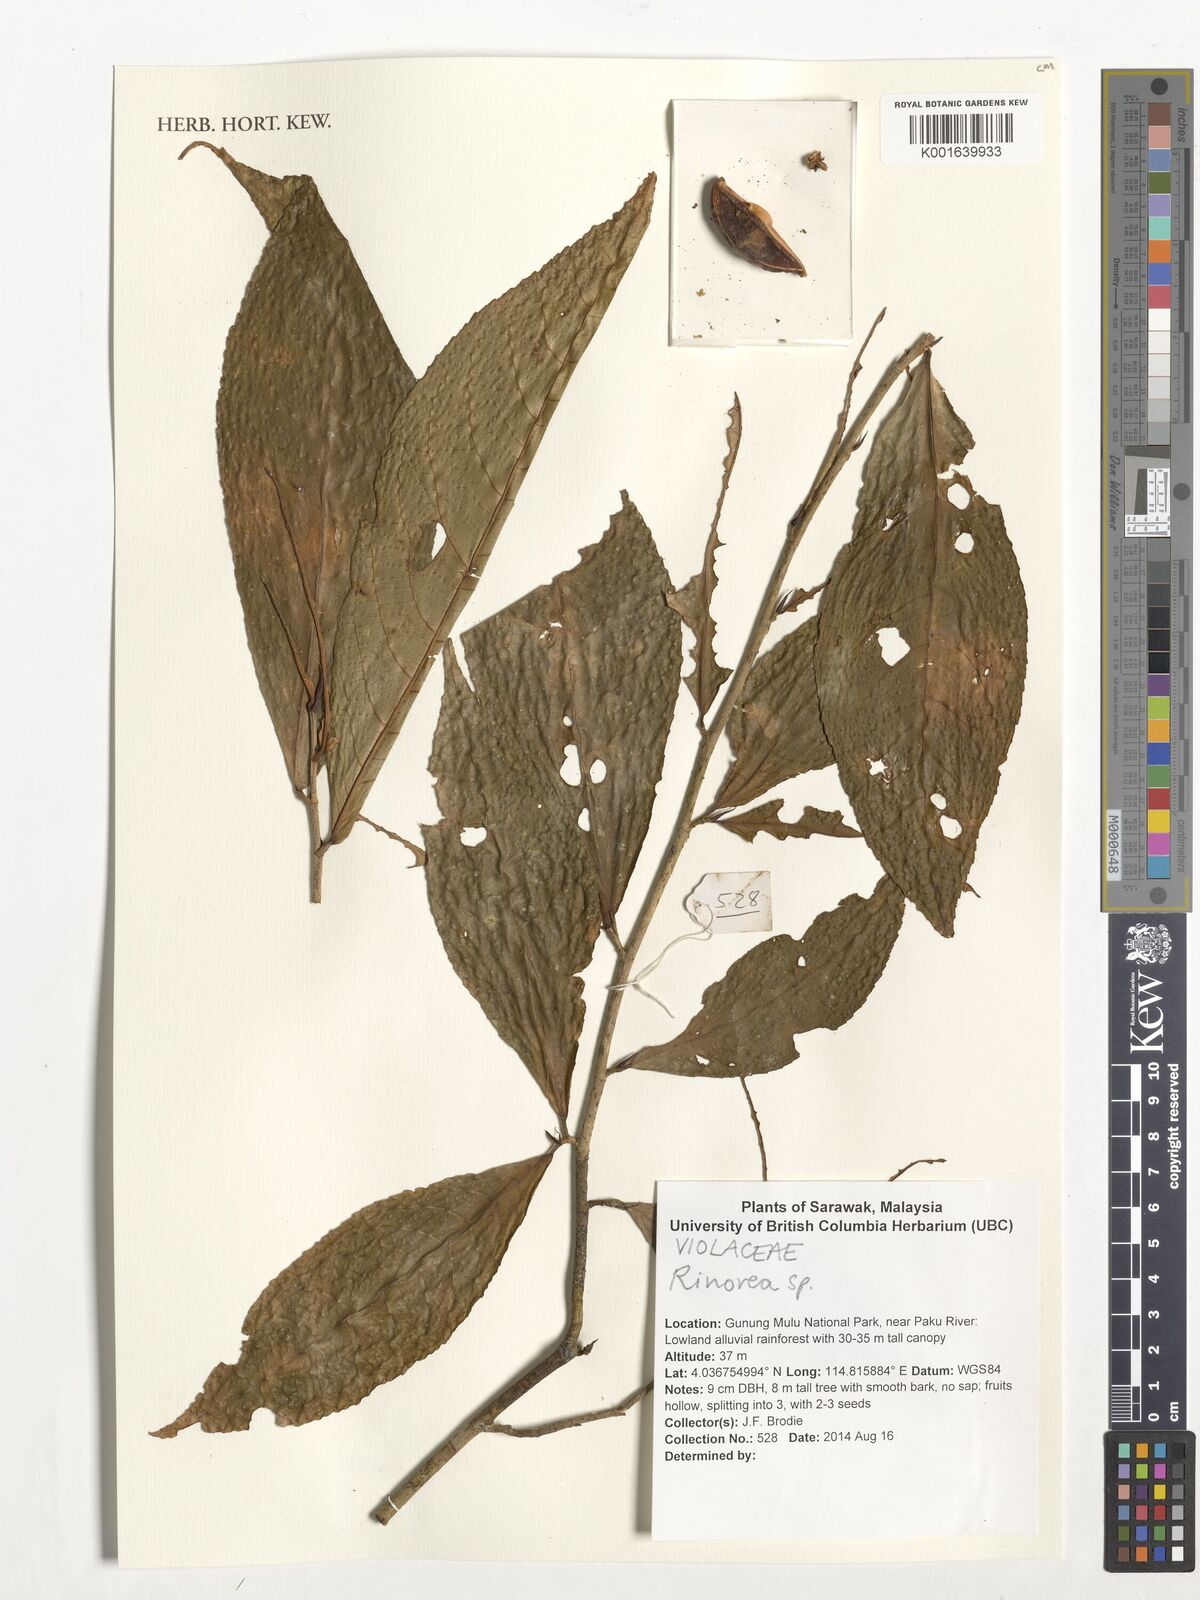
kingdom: Plantae
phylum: Tracheophyta
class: Magnoliopsida
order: Malpighiales
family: Violaceae
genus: Rinorea
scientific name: Rinorea
